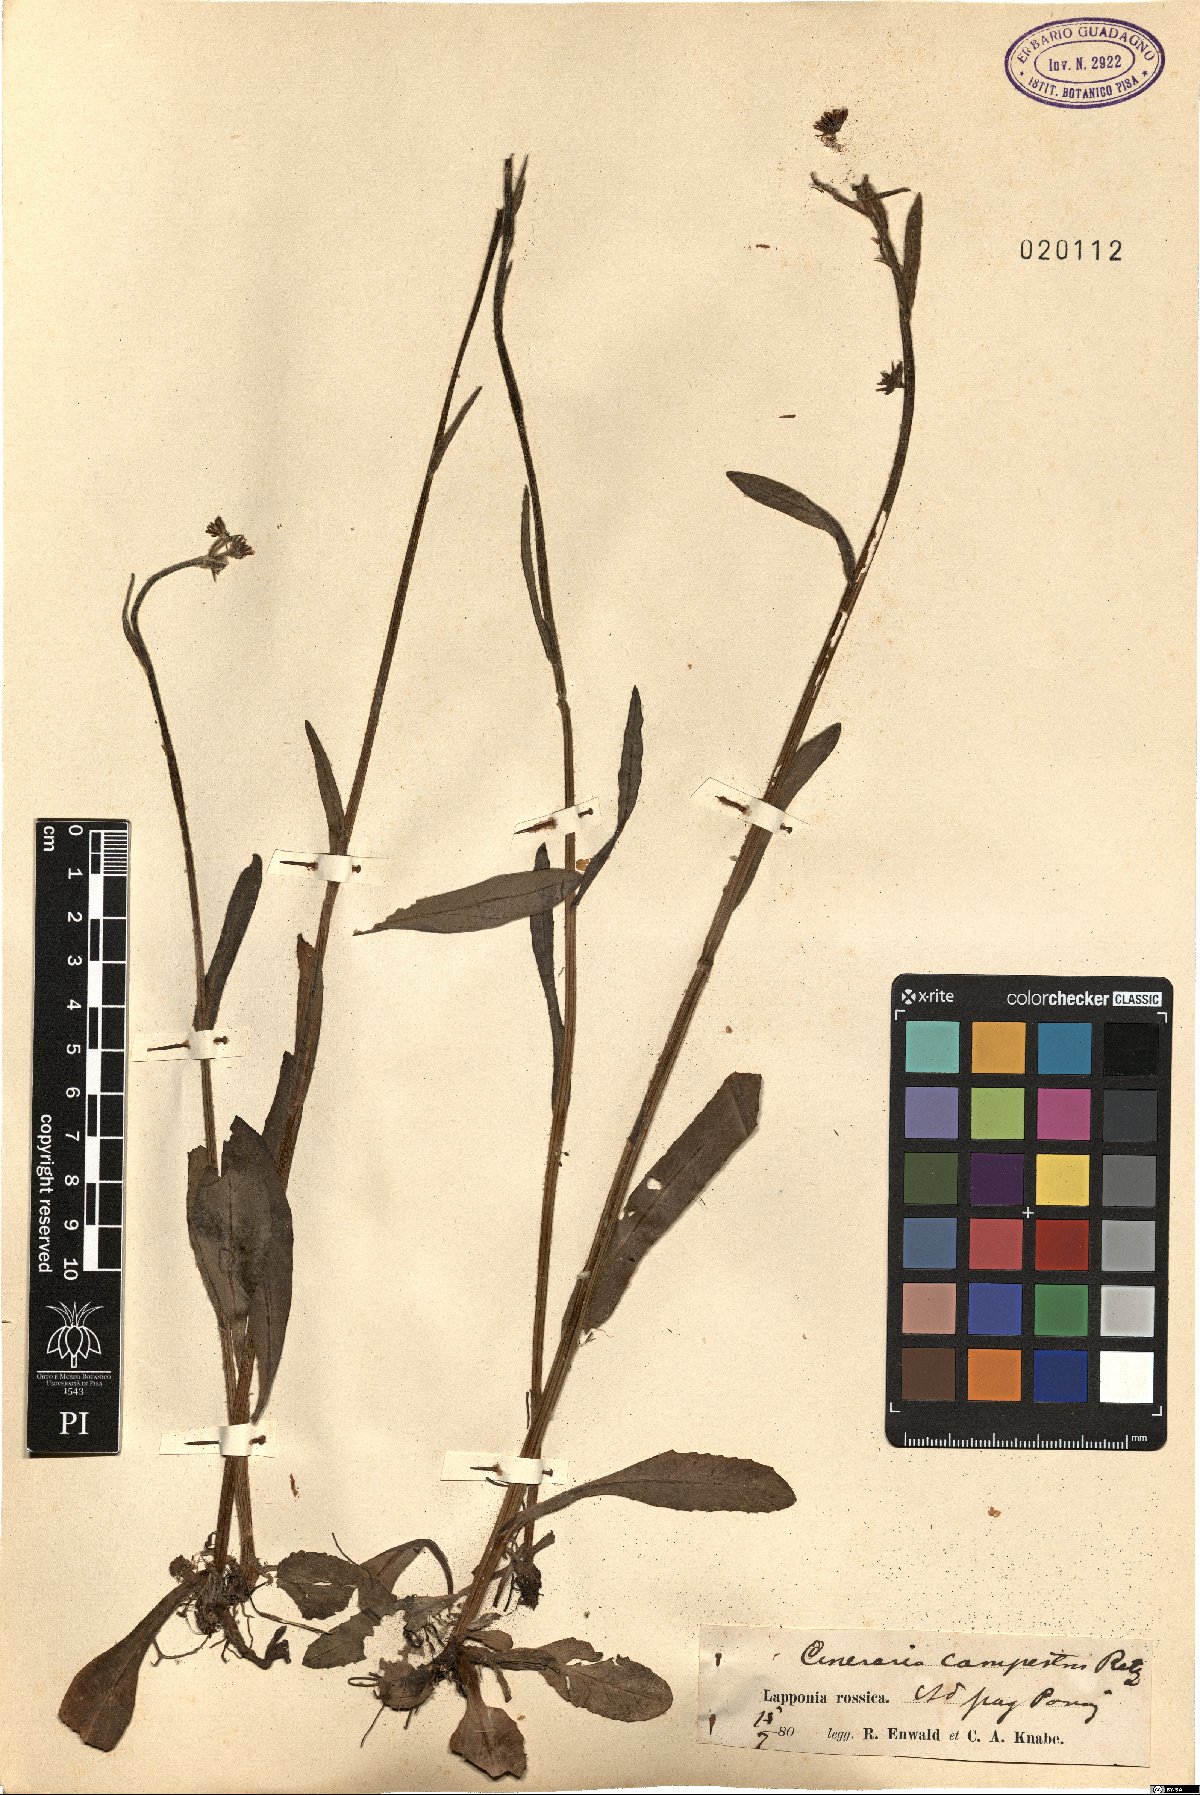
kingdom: Plantae
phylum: Tracheophyta
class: Magnoliopsida
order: Asterales
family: Asteraceae
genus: Tephroseris
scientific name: Tephroseris integrifolia
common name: Field fleawort
